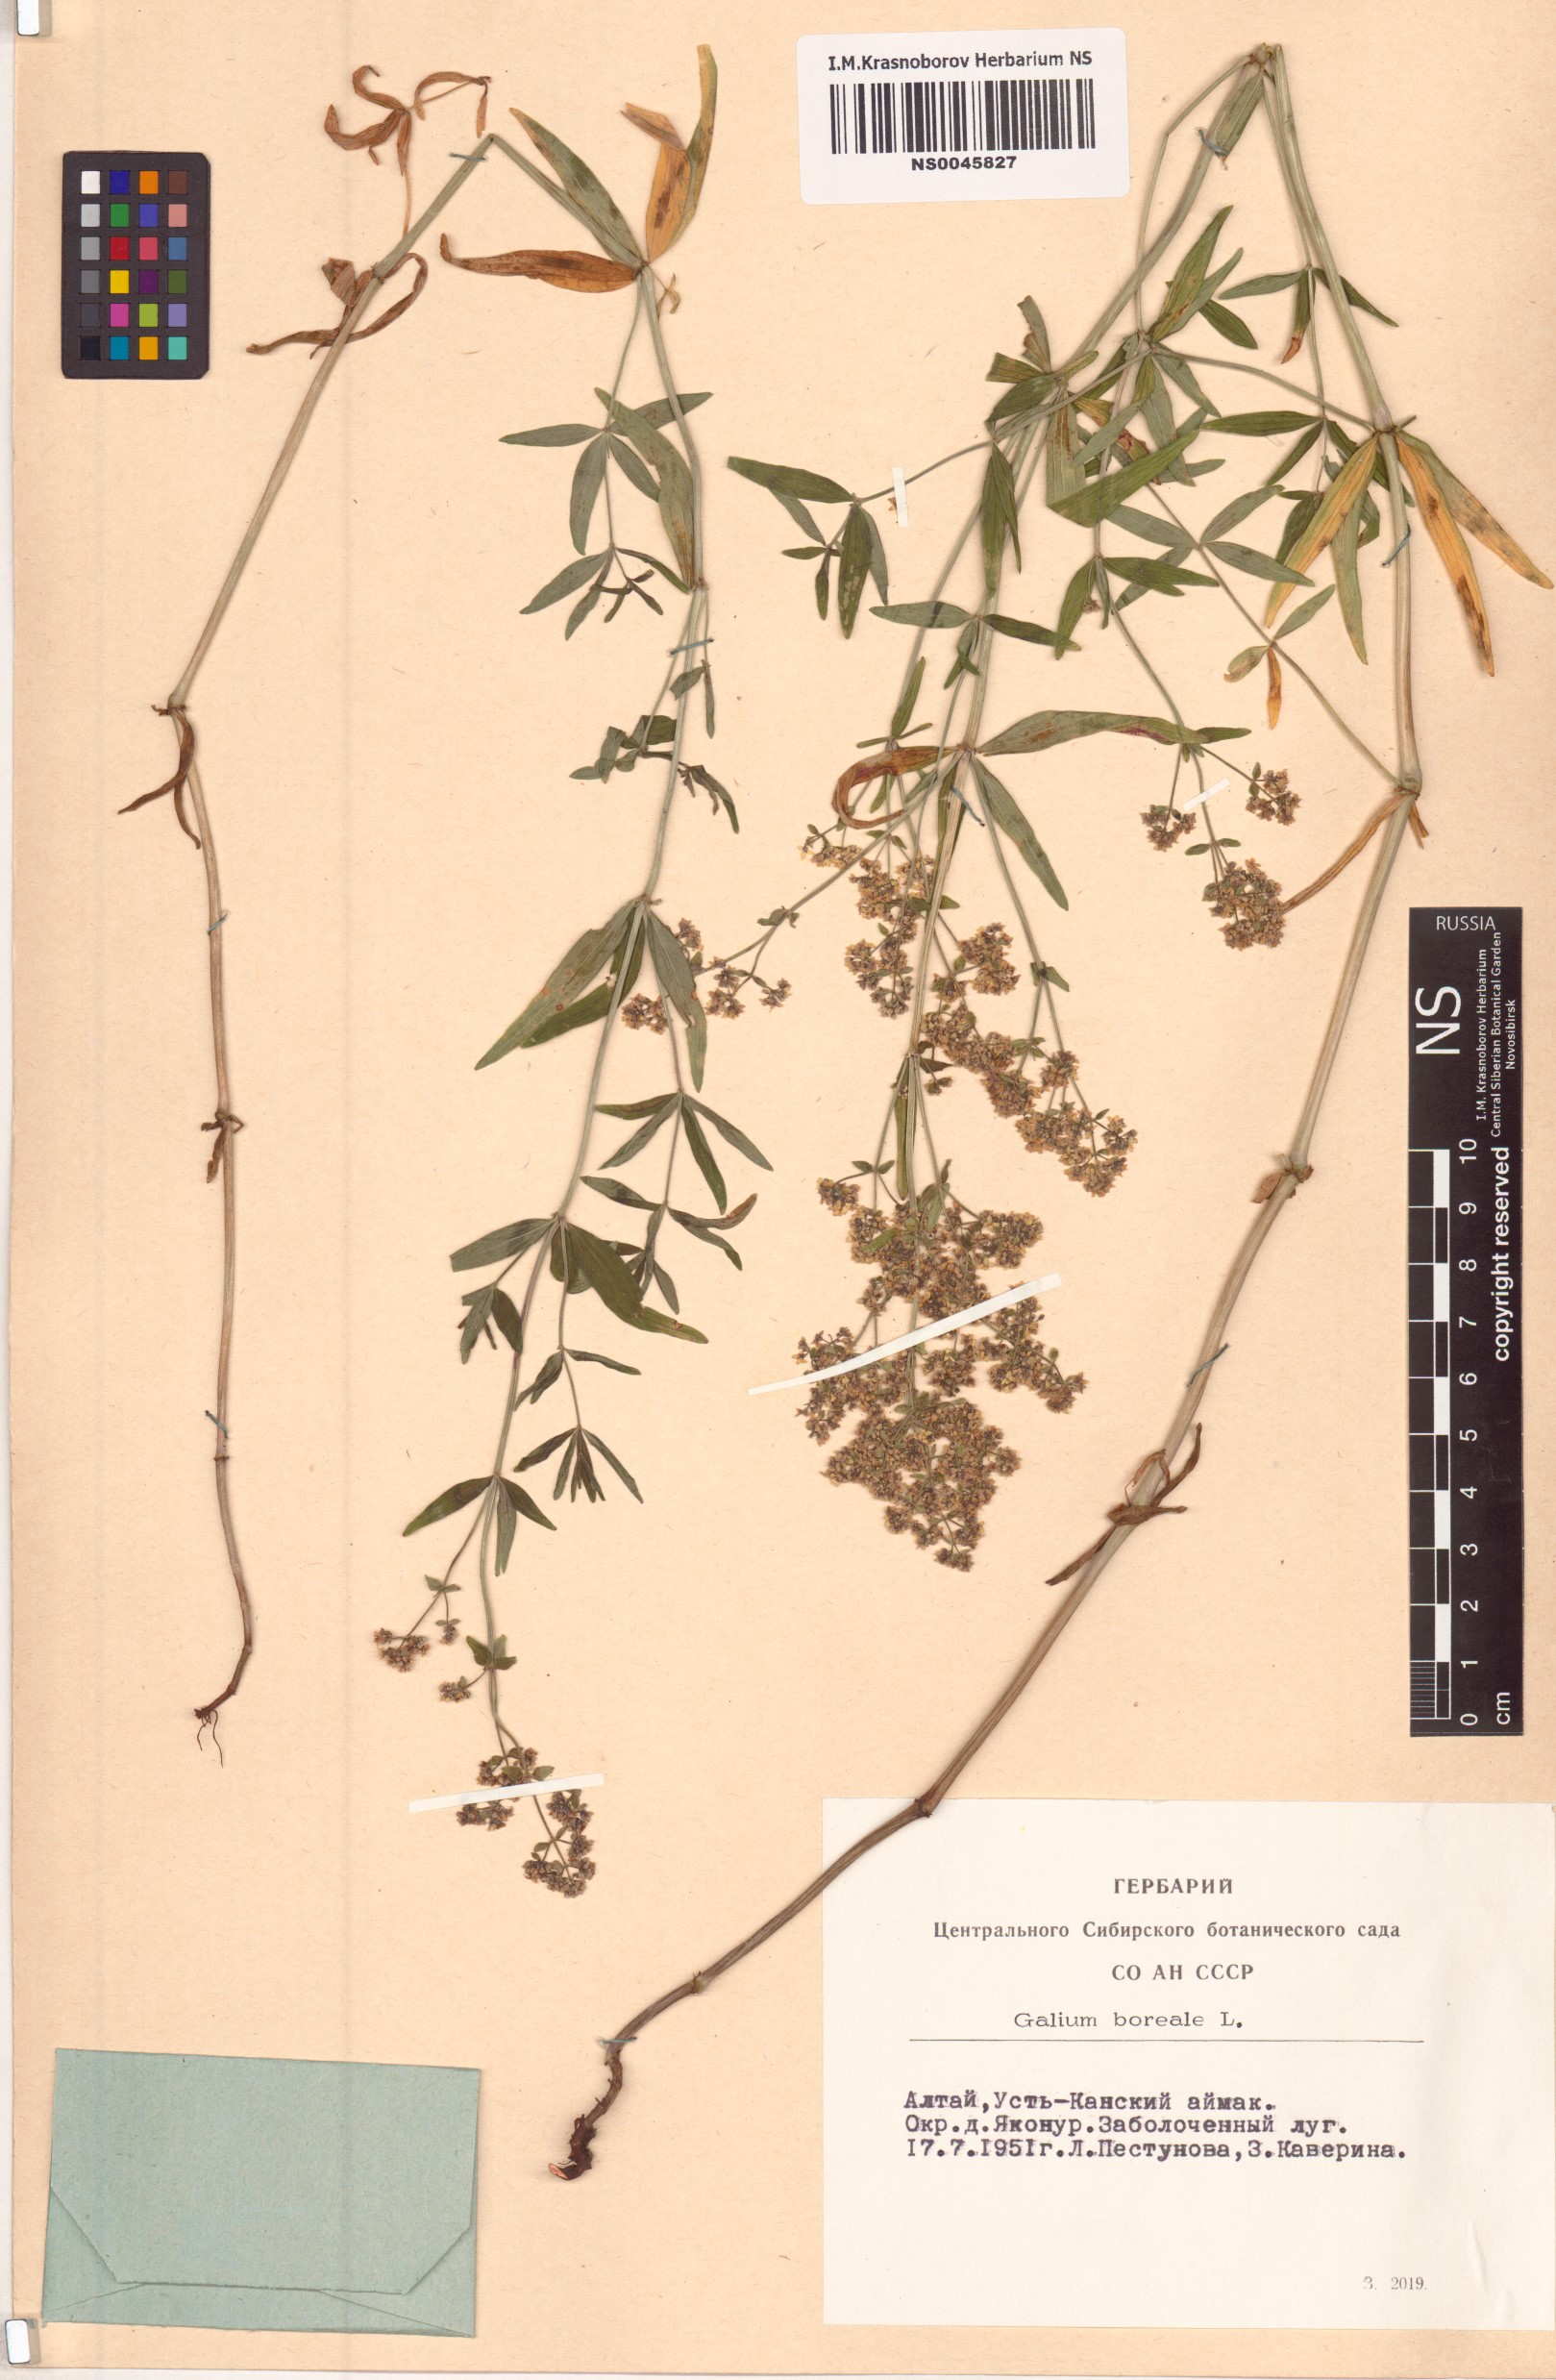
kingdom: Plantae
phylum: Tracheophyta
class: Magnoliopsida
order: Gentianales
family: Rubiaceae
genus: Galium
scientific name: Galium boreale
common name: Northern bedstraw
